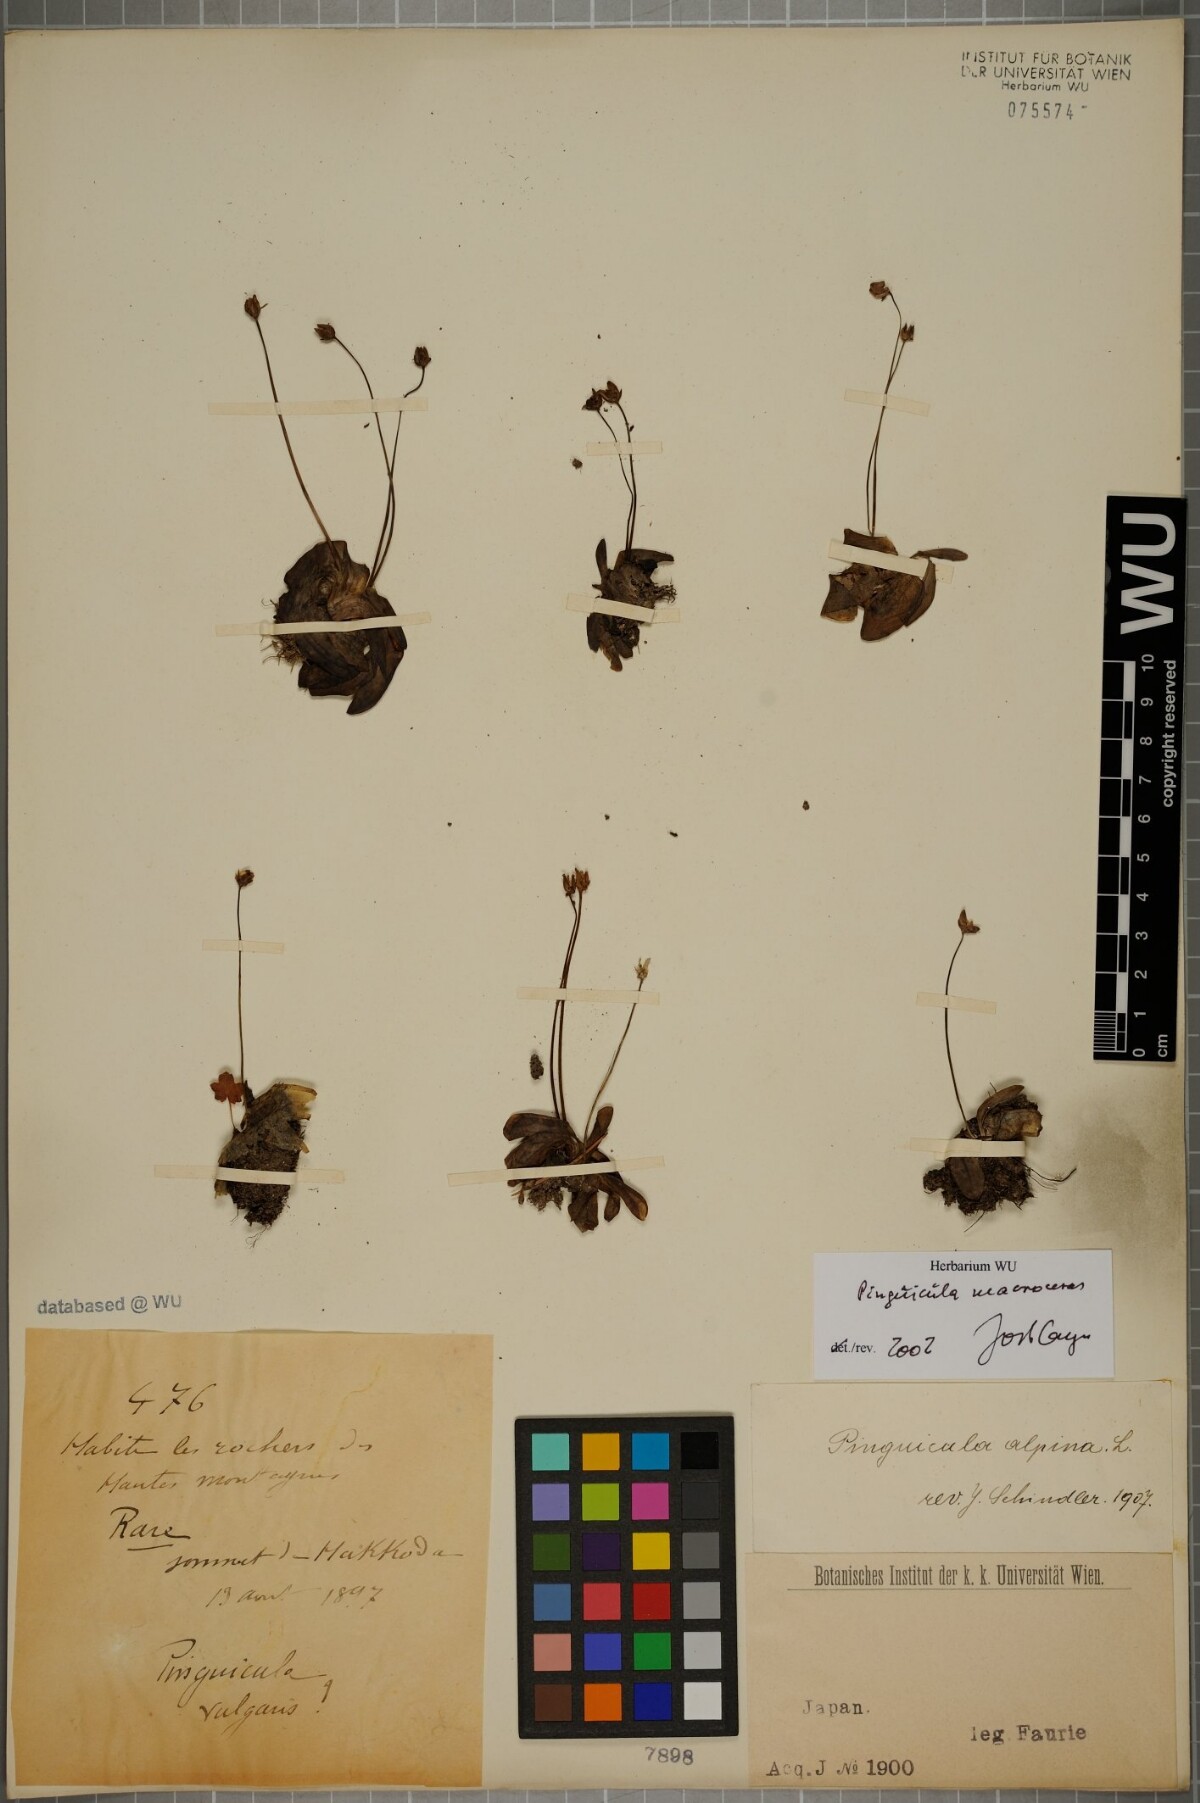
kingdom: Plantae
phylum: Tracheophyta
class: Magnoliopsida
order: Lamiales
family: Lentibulariaceae
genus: Pinguicula
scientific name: Pinguicula macroceras
